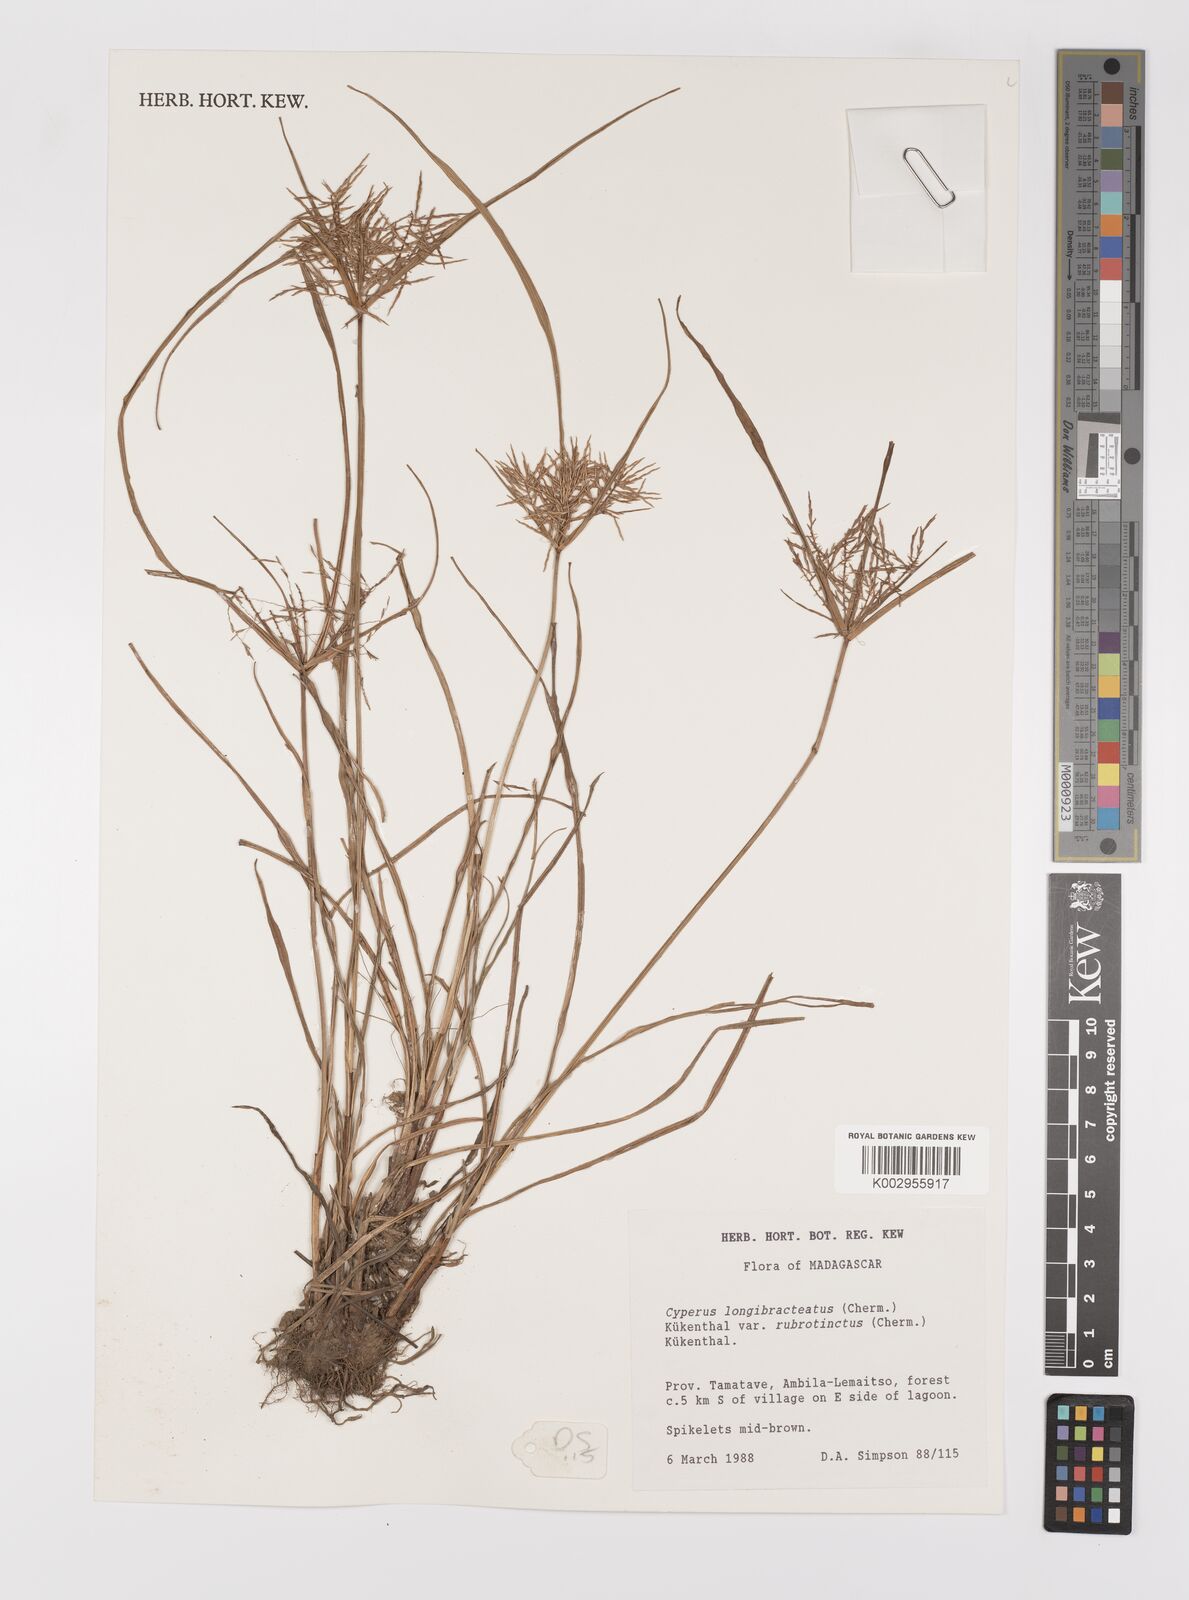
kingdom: Plantae
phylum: Tracheophyta
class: Liliopsida
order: Poales
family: Cyperaceae
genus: Cyperus
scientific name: Cyperus distans
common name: Slender cyperus
